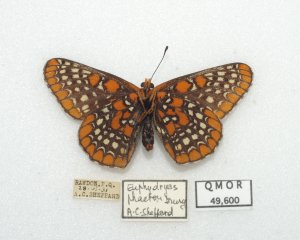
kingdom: Animalia
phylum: Arthropoda
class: Insecta
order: Lepidoptera
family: Nymphalidae
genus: Euphydryas
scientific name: Euphydryas phaeton
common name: Baltimore Checkerspot
